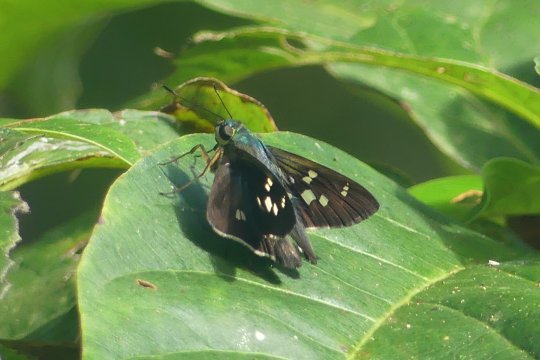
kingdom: Animalia
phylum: Arthropoda
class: Insecta
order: Lepidoptera
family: Hesperiidae
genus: Niconiades
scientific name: Niconiades incomptus
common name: Half-tailed Skipper
